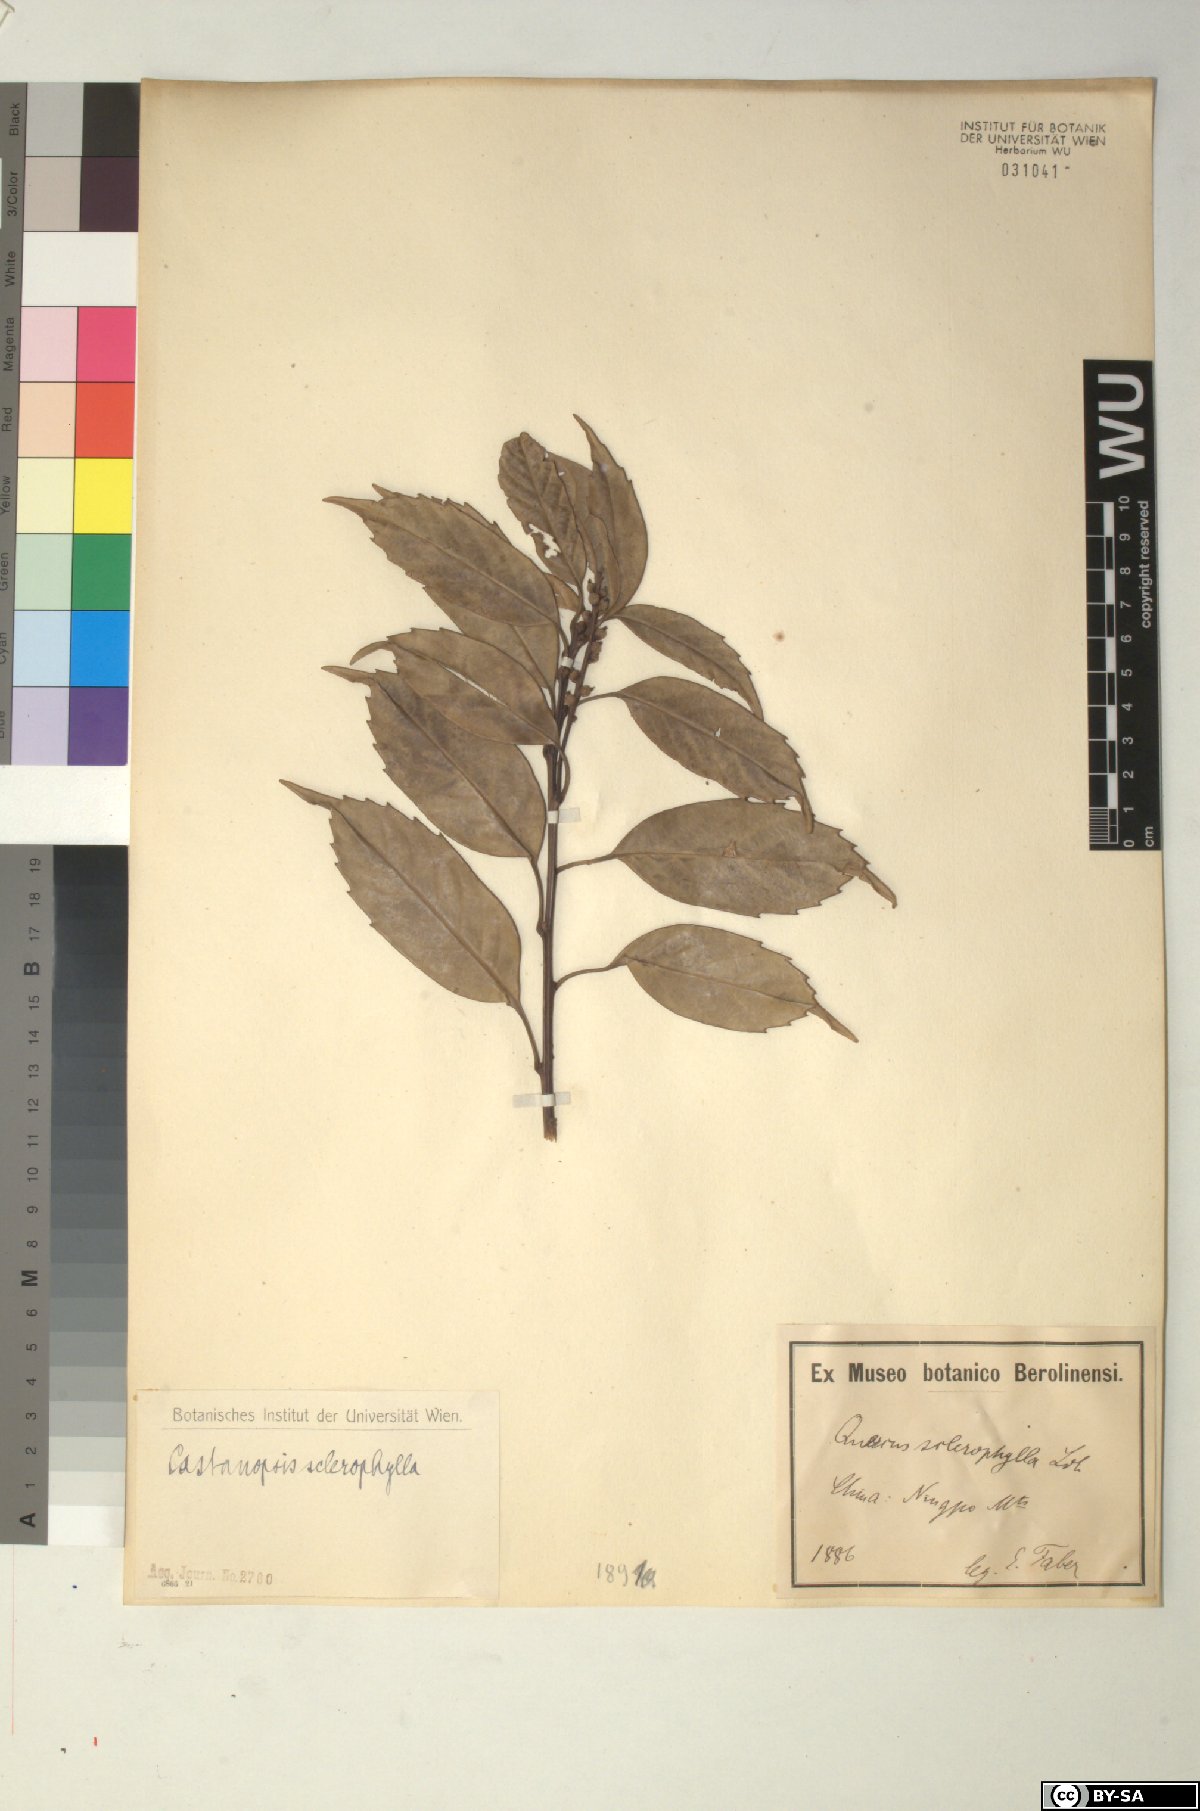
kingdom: Plantae
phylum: Tracheophyta
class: Magnoliopsida
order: Fagales
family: Fagaceae
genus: Castanopsis
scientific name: Castanopsis sclerophylla
